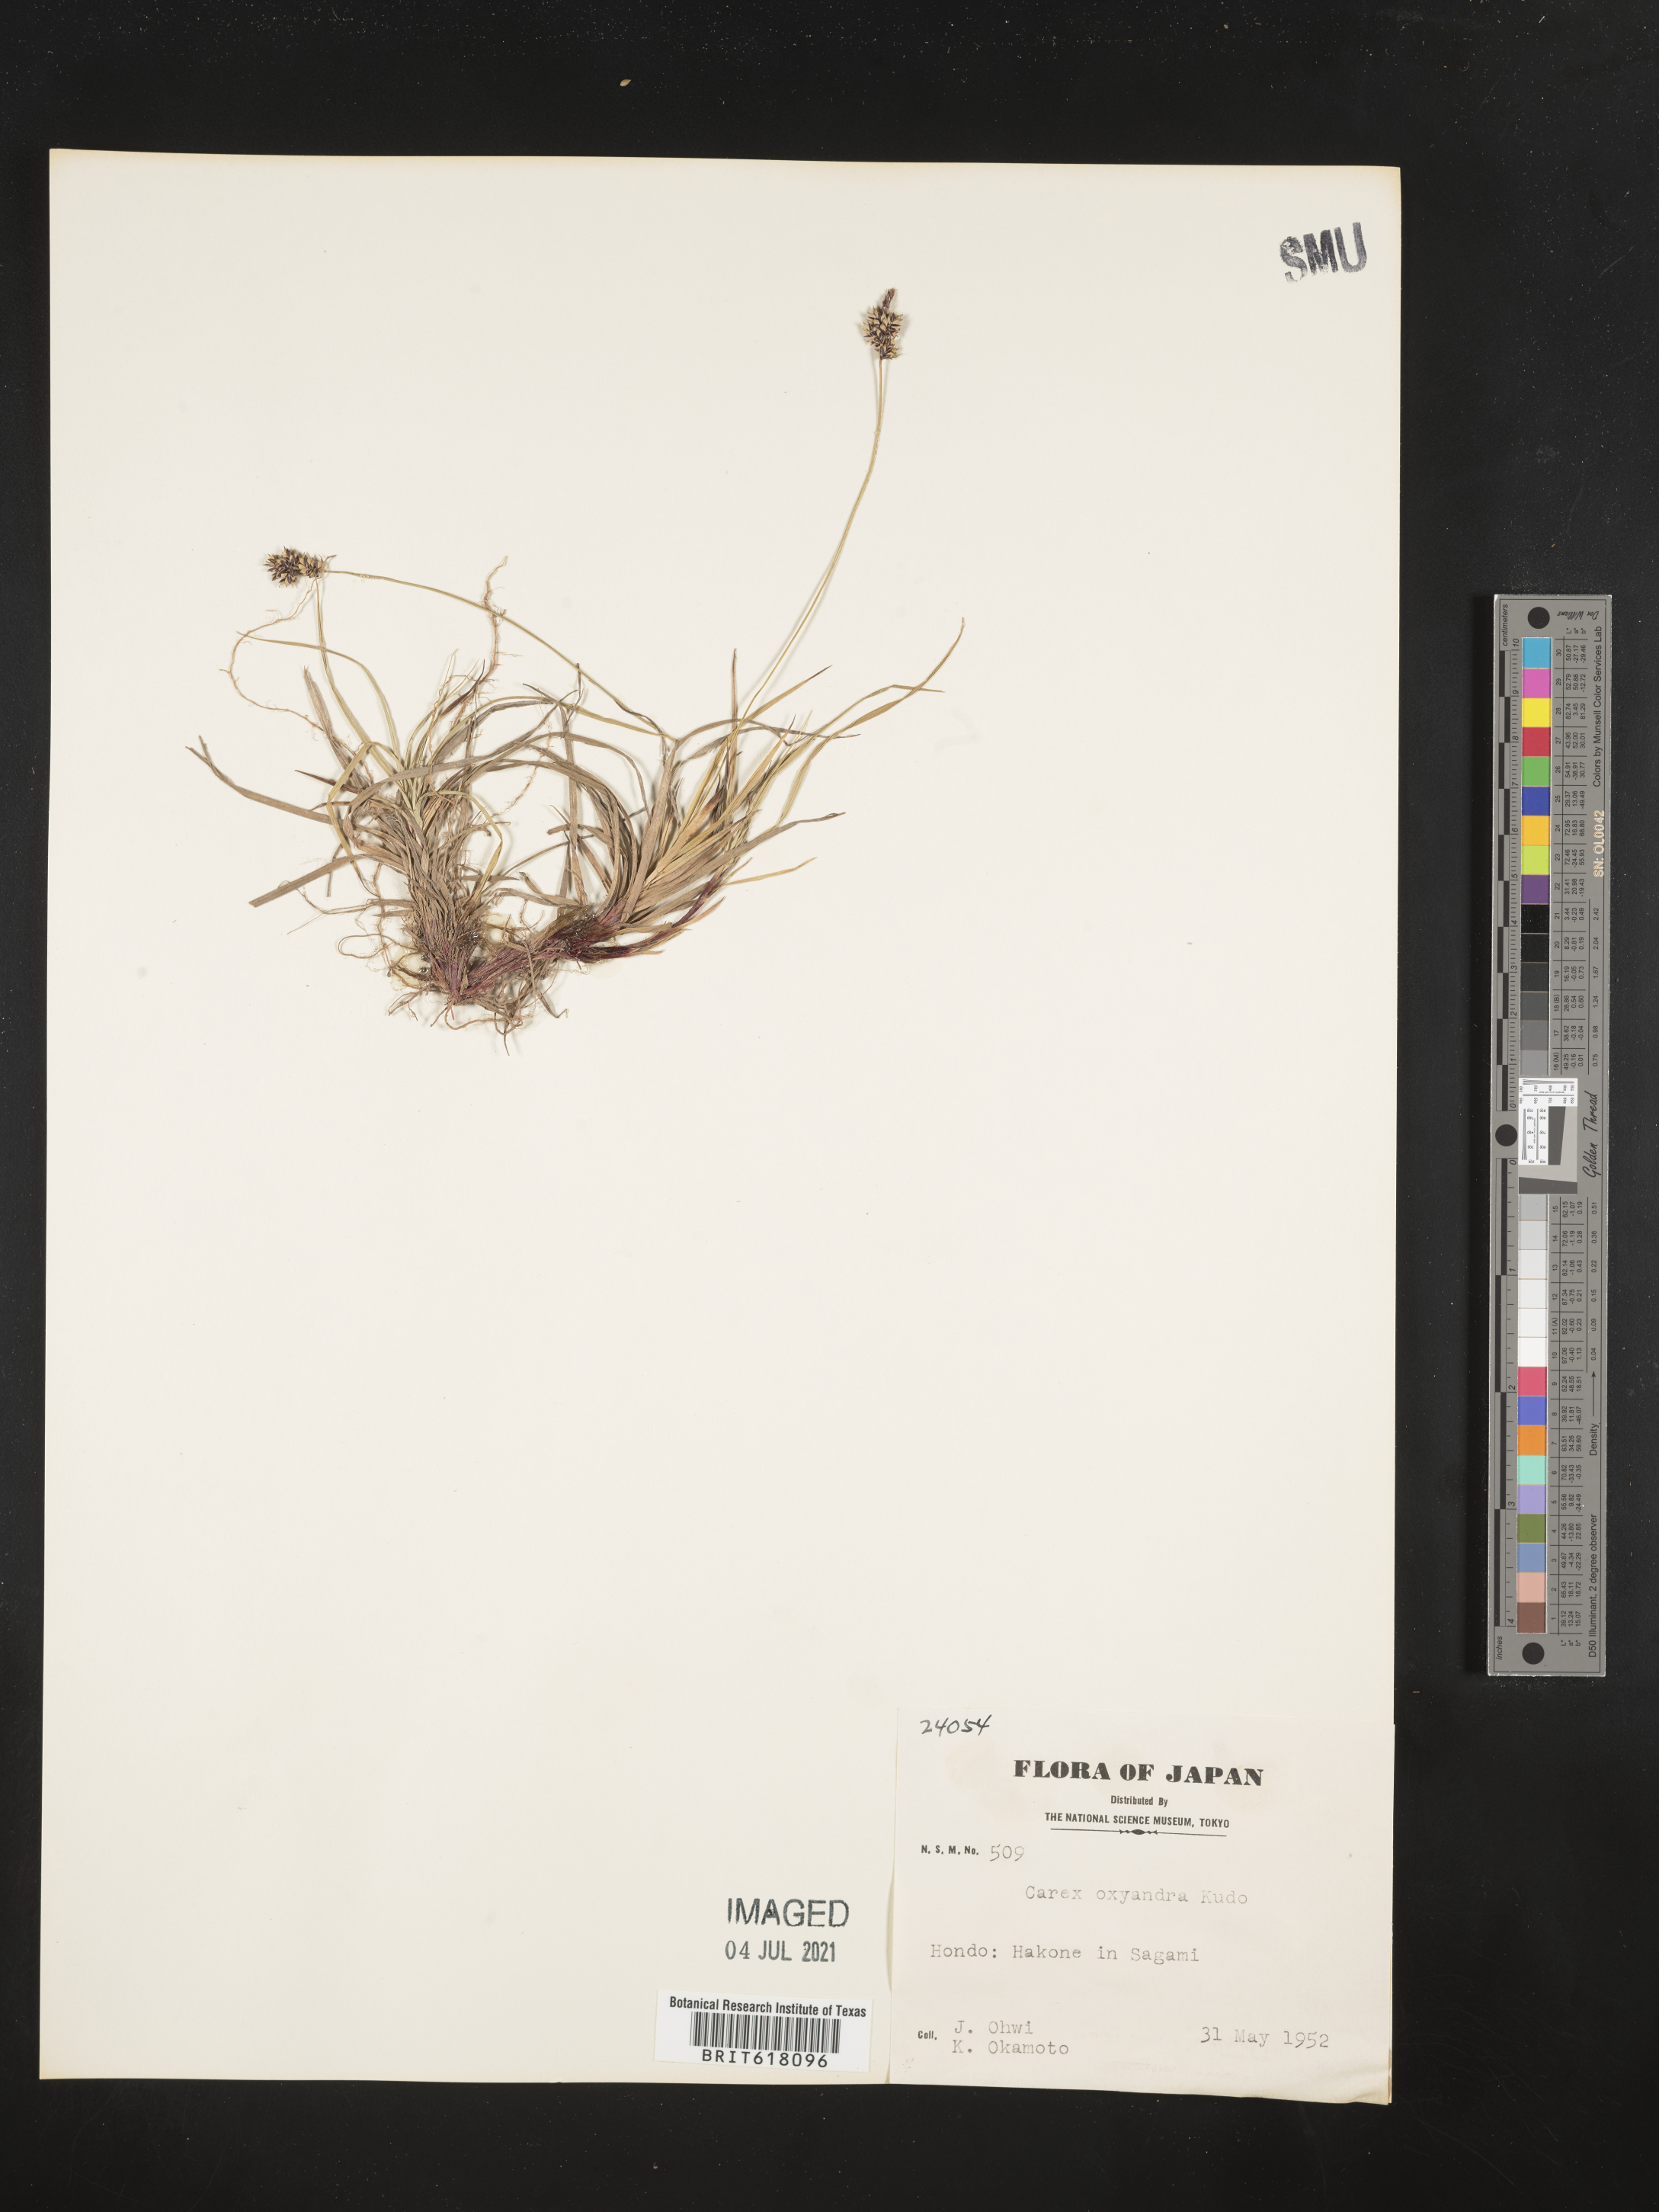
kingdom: Plantae
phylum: Tracheophyta
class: Liliopsida
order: Poales
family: Cyperaceae
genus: Carex
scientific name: Carex oxyandra
